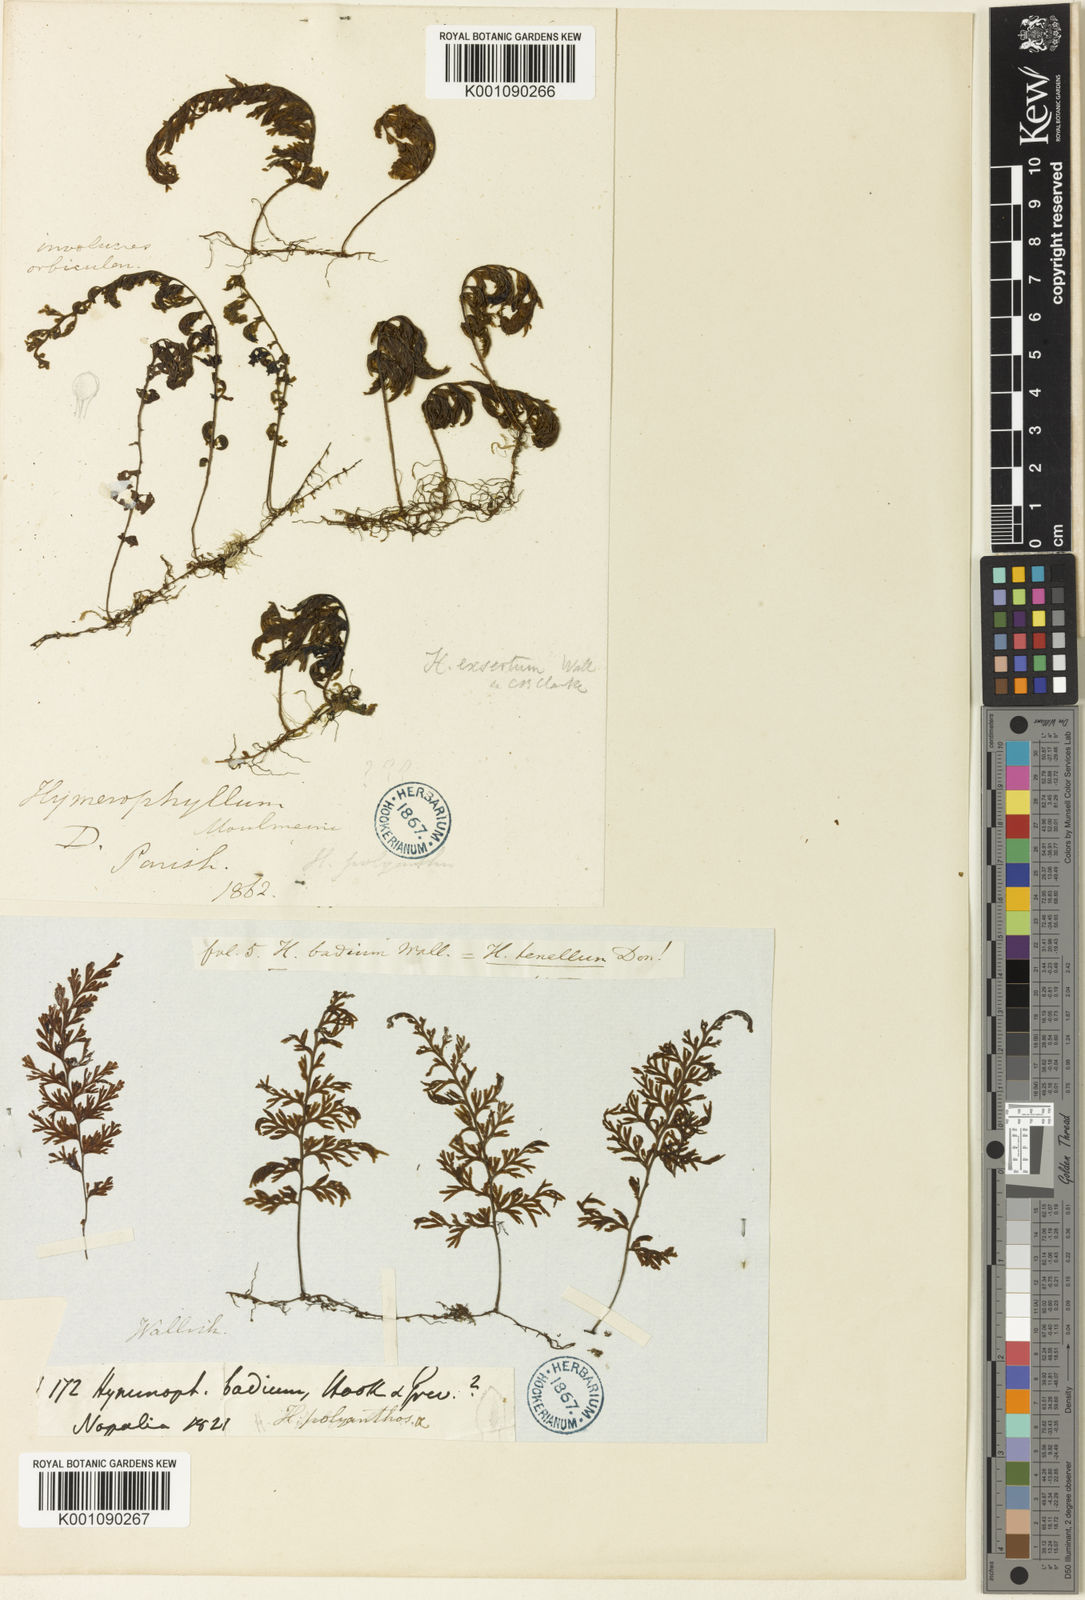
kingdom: Plantae
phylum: Tracheophyta
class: Polypodiopsida
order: Hymenophyllales
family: Hymenophyllaceae
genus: Hymenophyllum
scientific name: Hymenophyllum polyanthos
